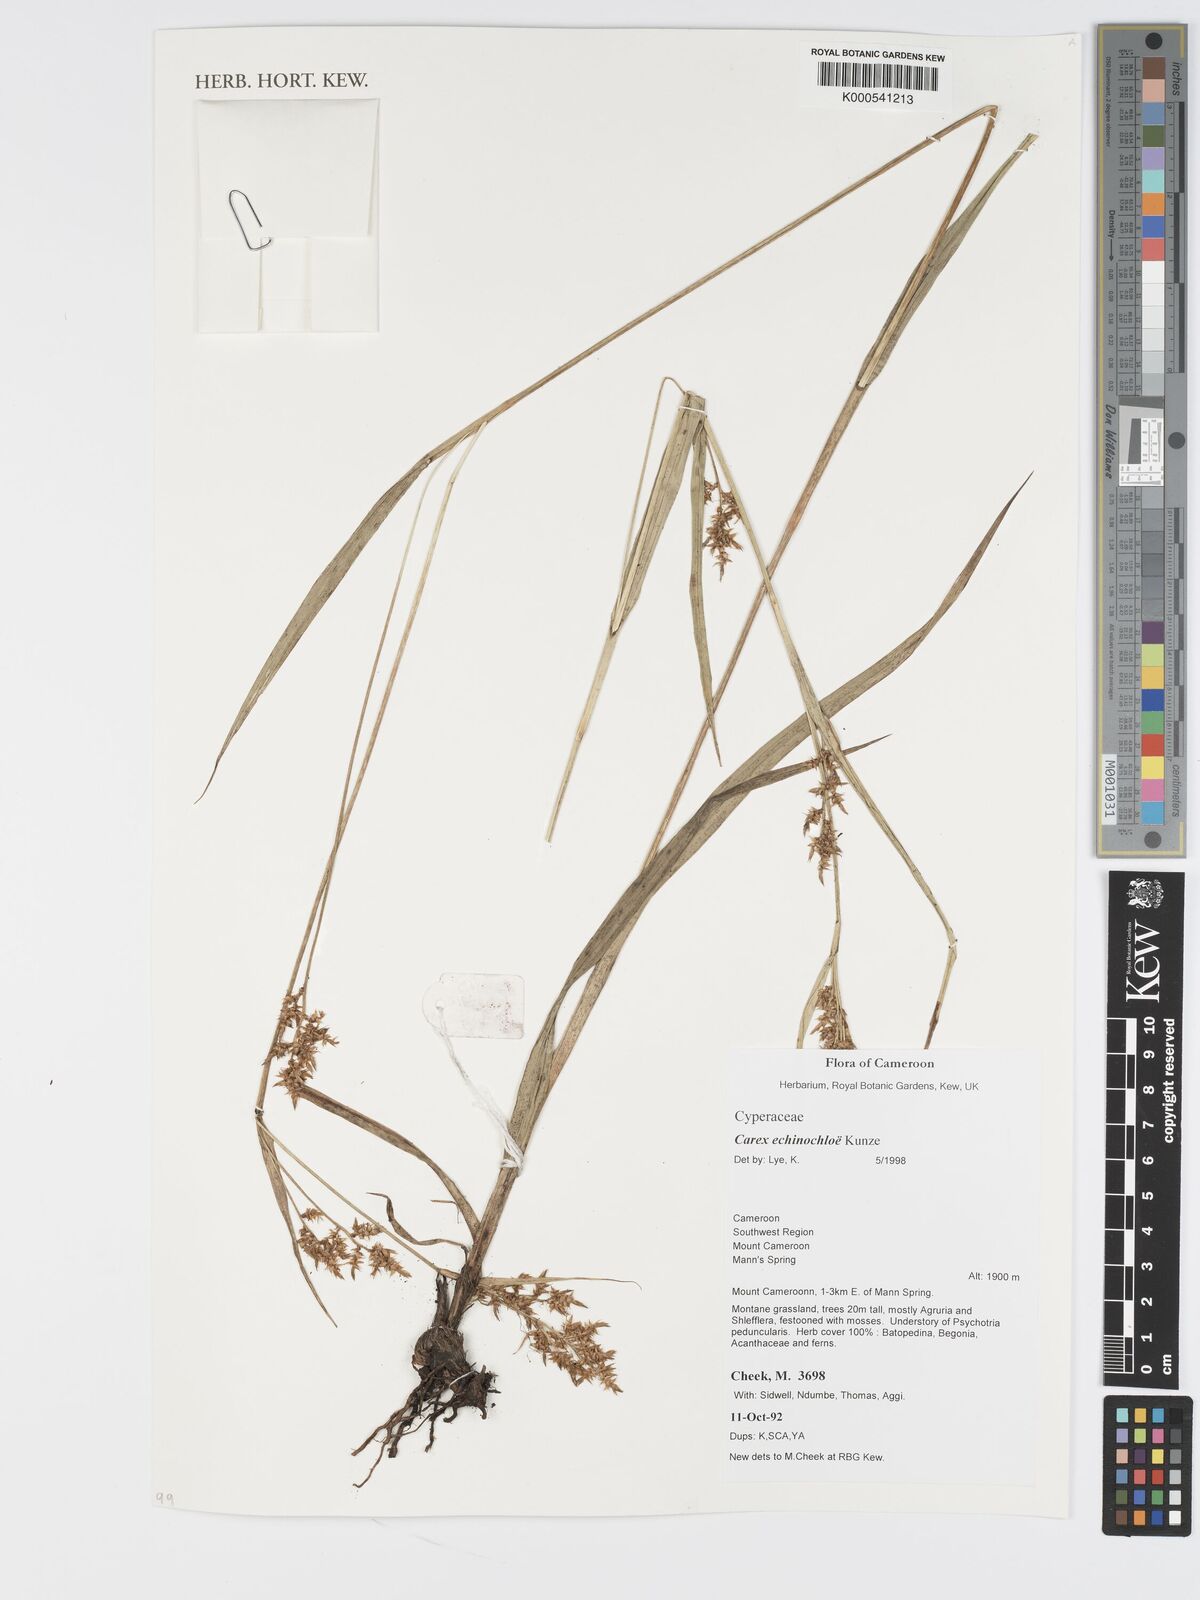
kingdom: Plantae
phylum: Tracheophyta
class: Liliopsida
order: Poales
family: Cyperaceae
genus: Carex
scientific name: Carex
